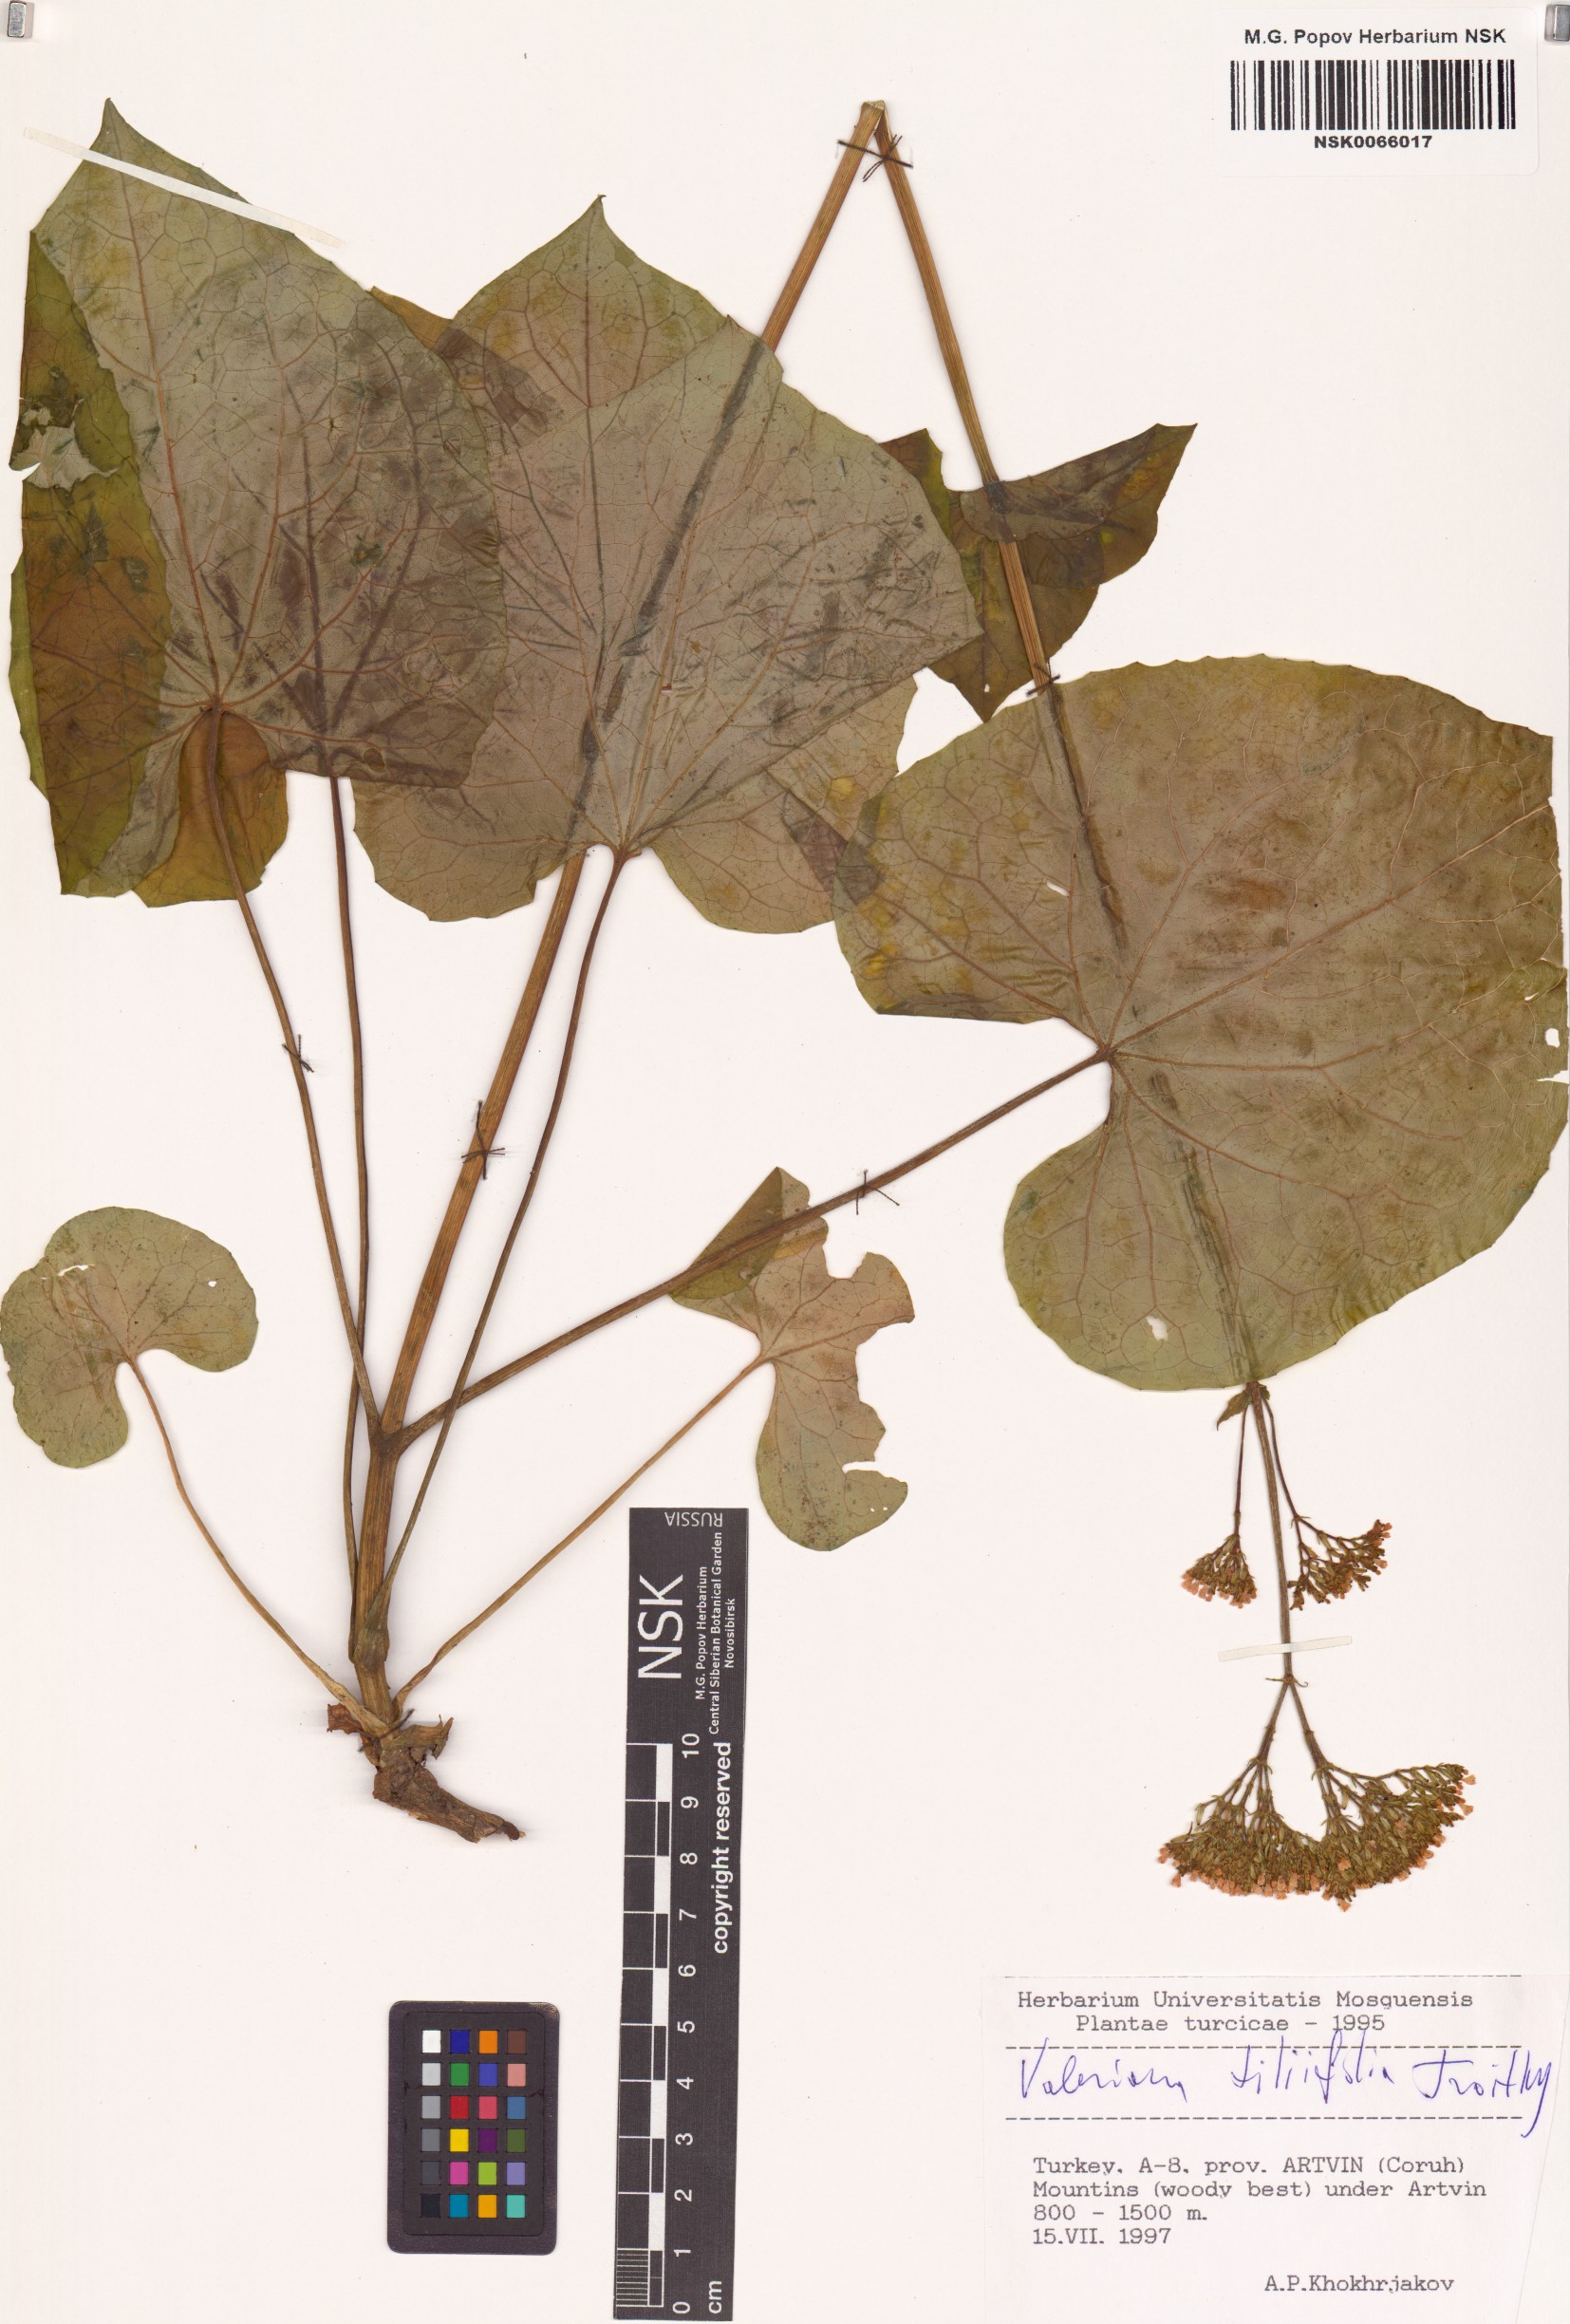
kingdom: Plantae
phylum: Tracheophyta
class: Magnoliopsida
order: Dipsacales
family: Caprifoliaceae
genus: Valeriana
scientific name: Valeriana tiliifolia
